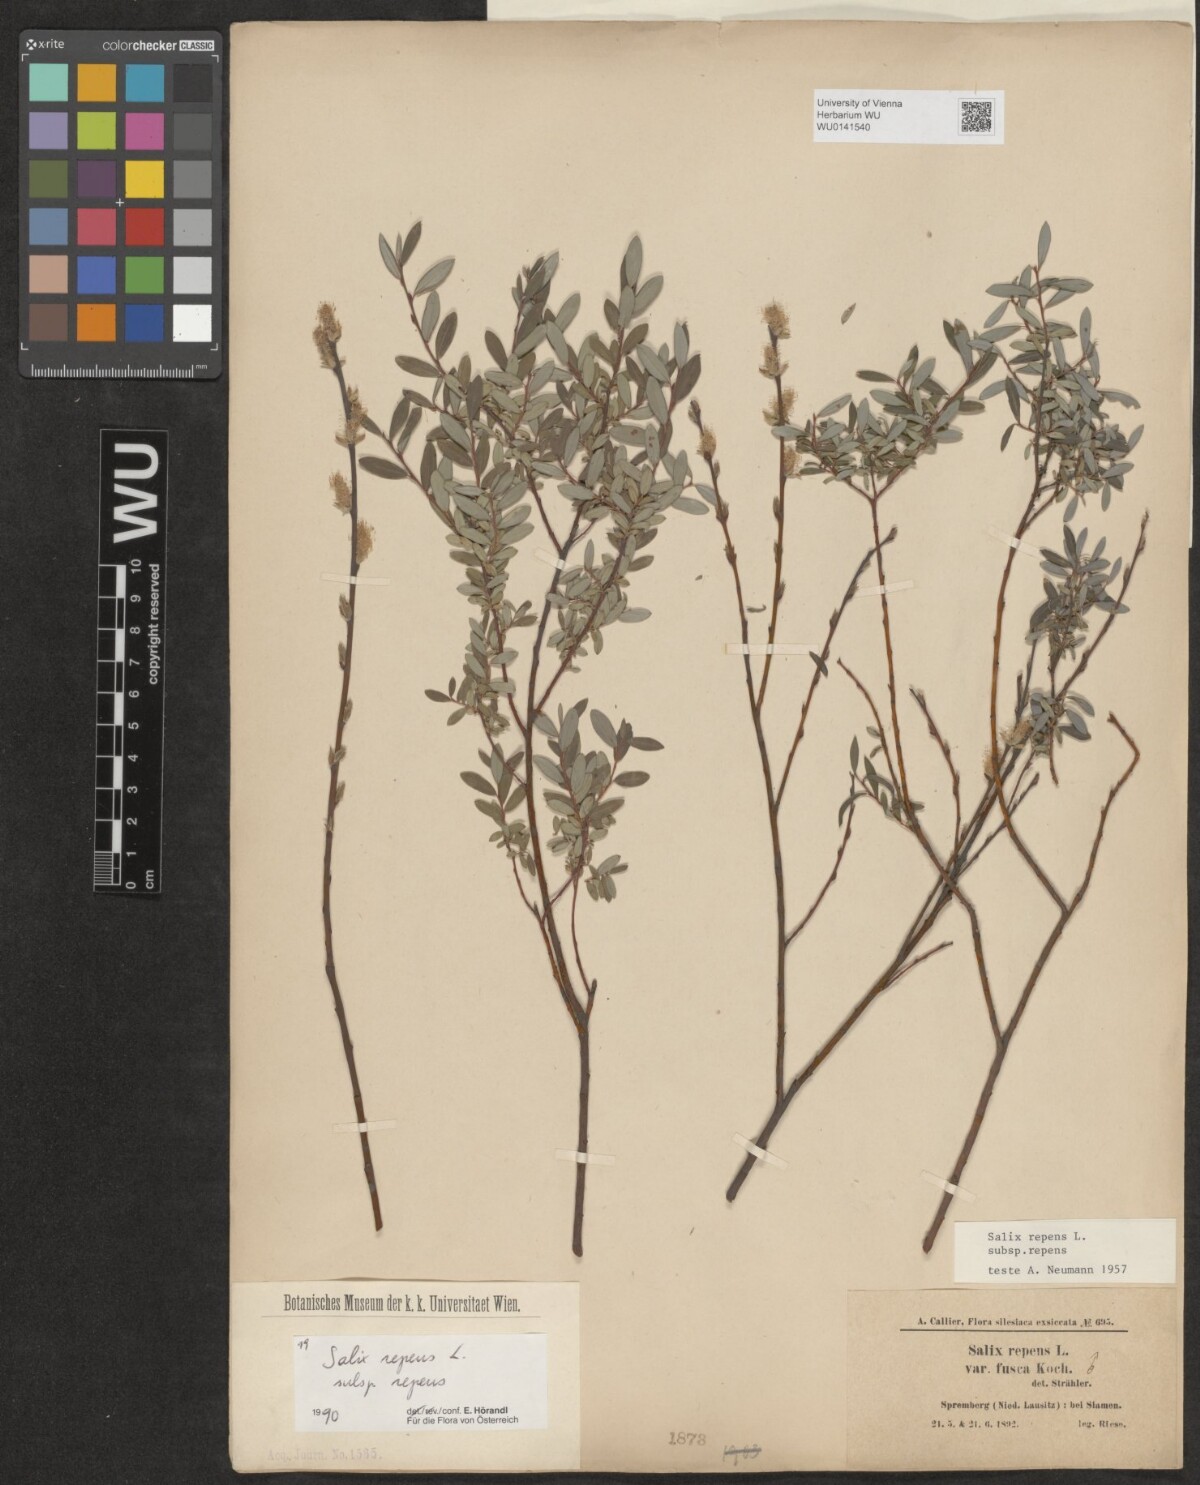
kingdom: Plantae
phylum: Tracheophyta
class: Magnoliopsida
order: Malpighiales
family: Salicaceae
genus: Salix
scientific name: Salix repens
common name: Creeping willow
